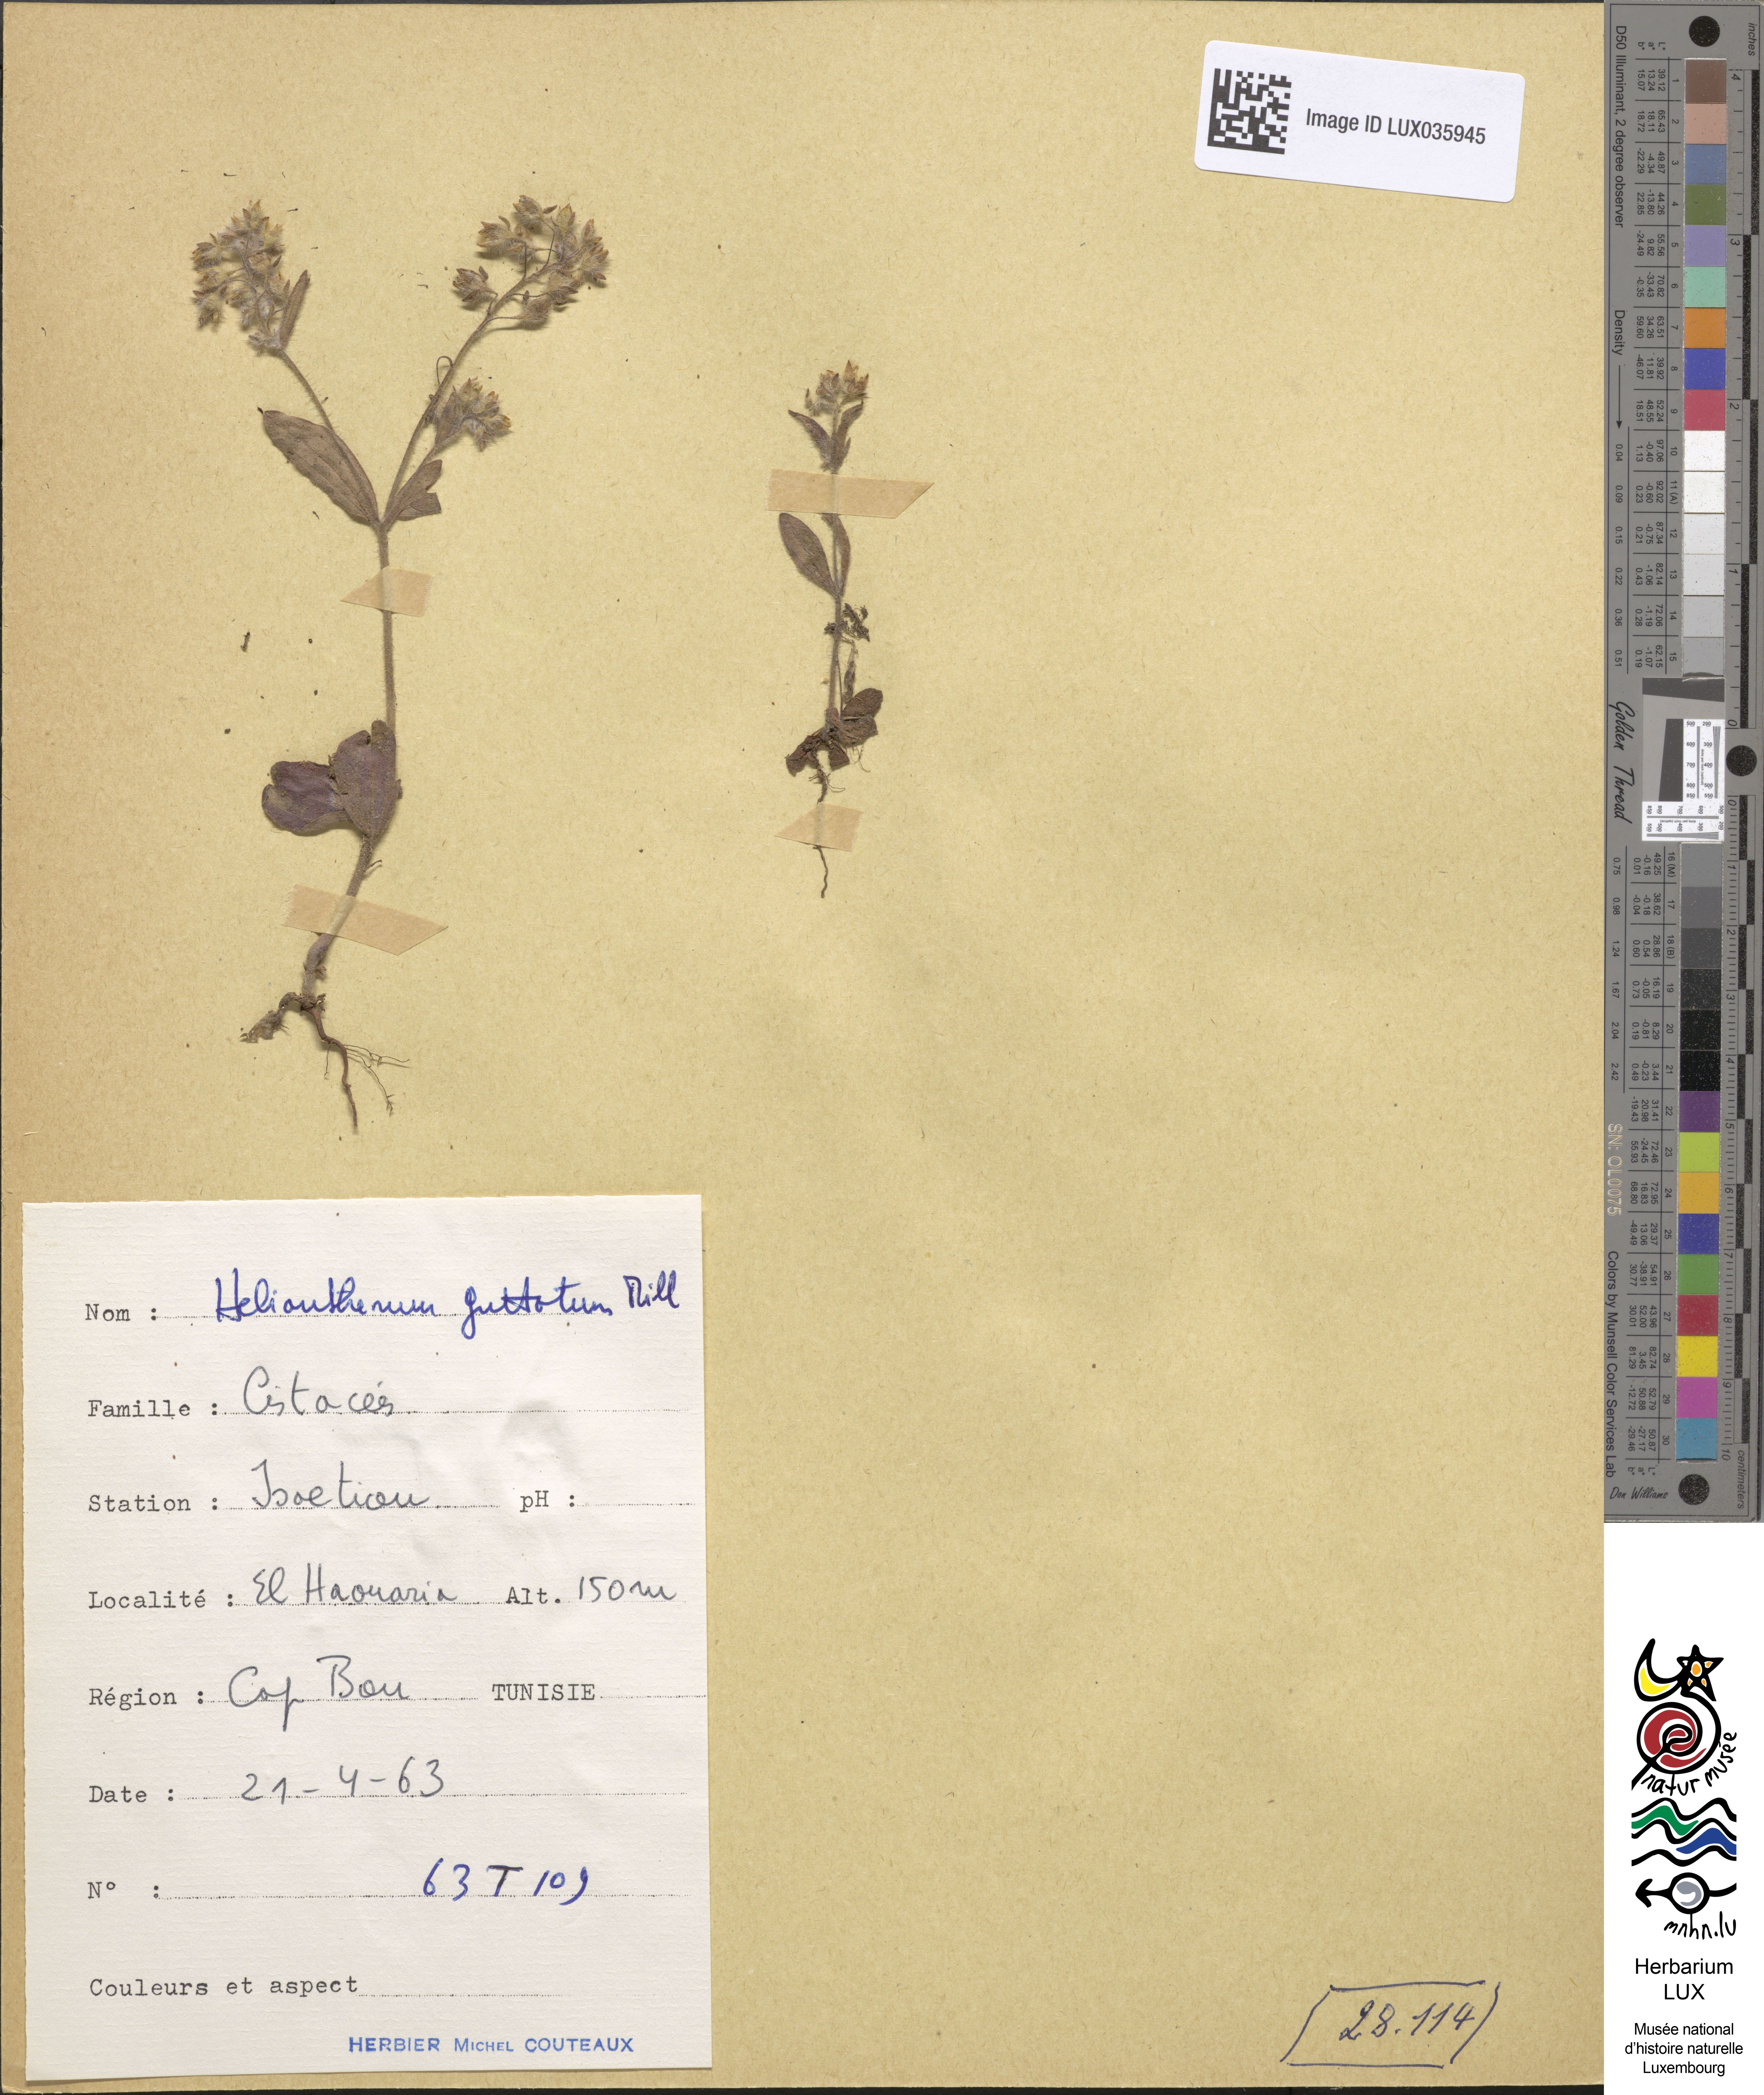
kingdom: Plantae
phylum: Tracheophyta
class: Magnoliopsida
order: Malvales
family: Cistaceae
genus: Tuberaria
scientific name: Tuberaria guttata
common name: Spotted rock-rose
